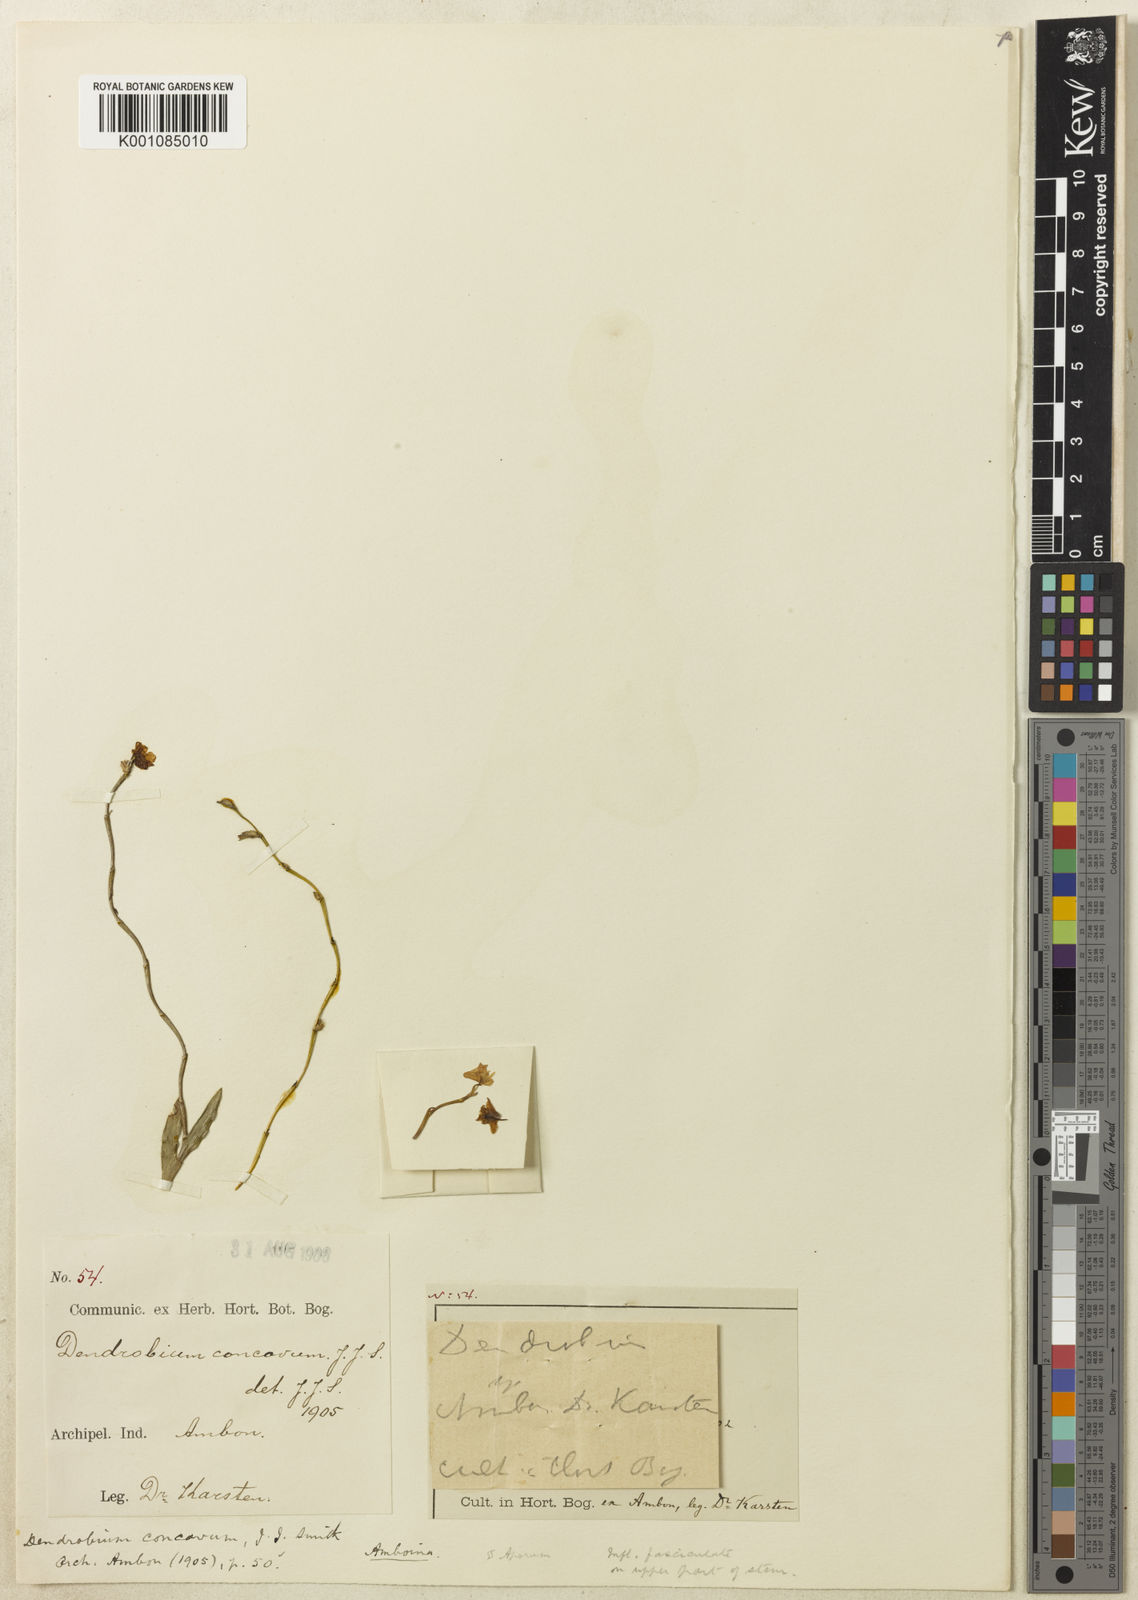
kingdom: Plantae
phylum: Tracheophyta
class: Liliopsida
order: Asparagales
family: Orchidaceae
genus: Dendrobium
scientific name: Dendrobium concavum
